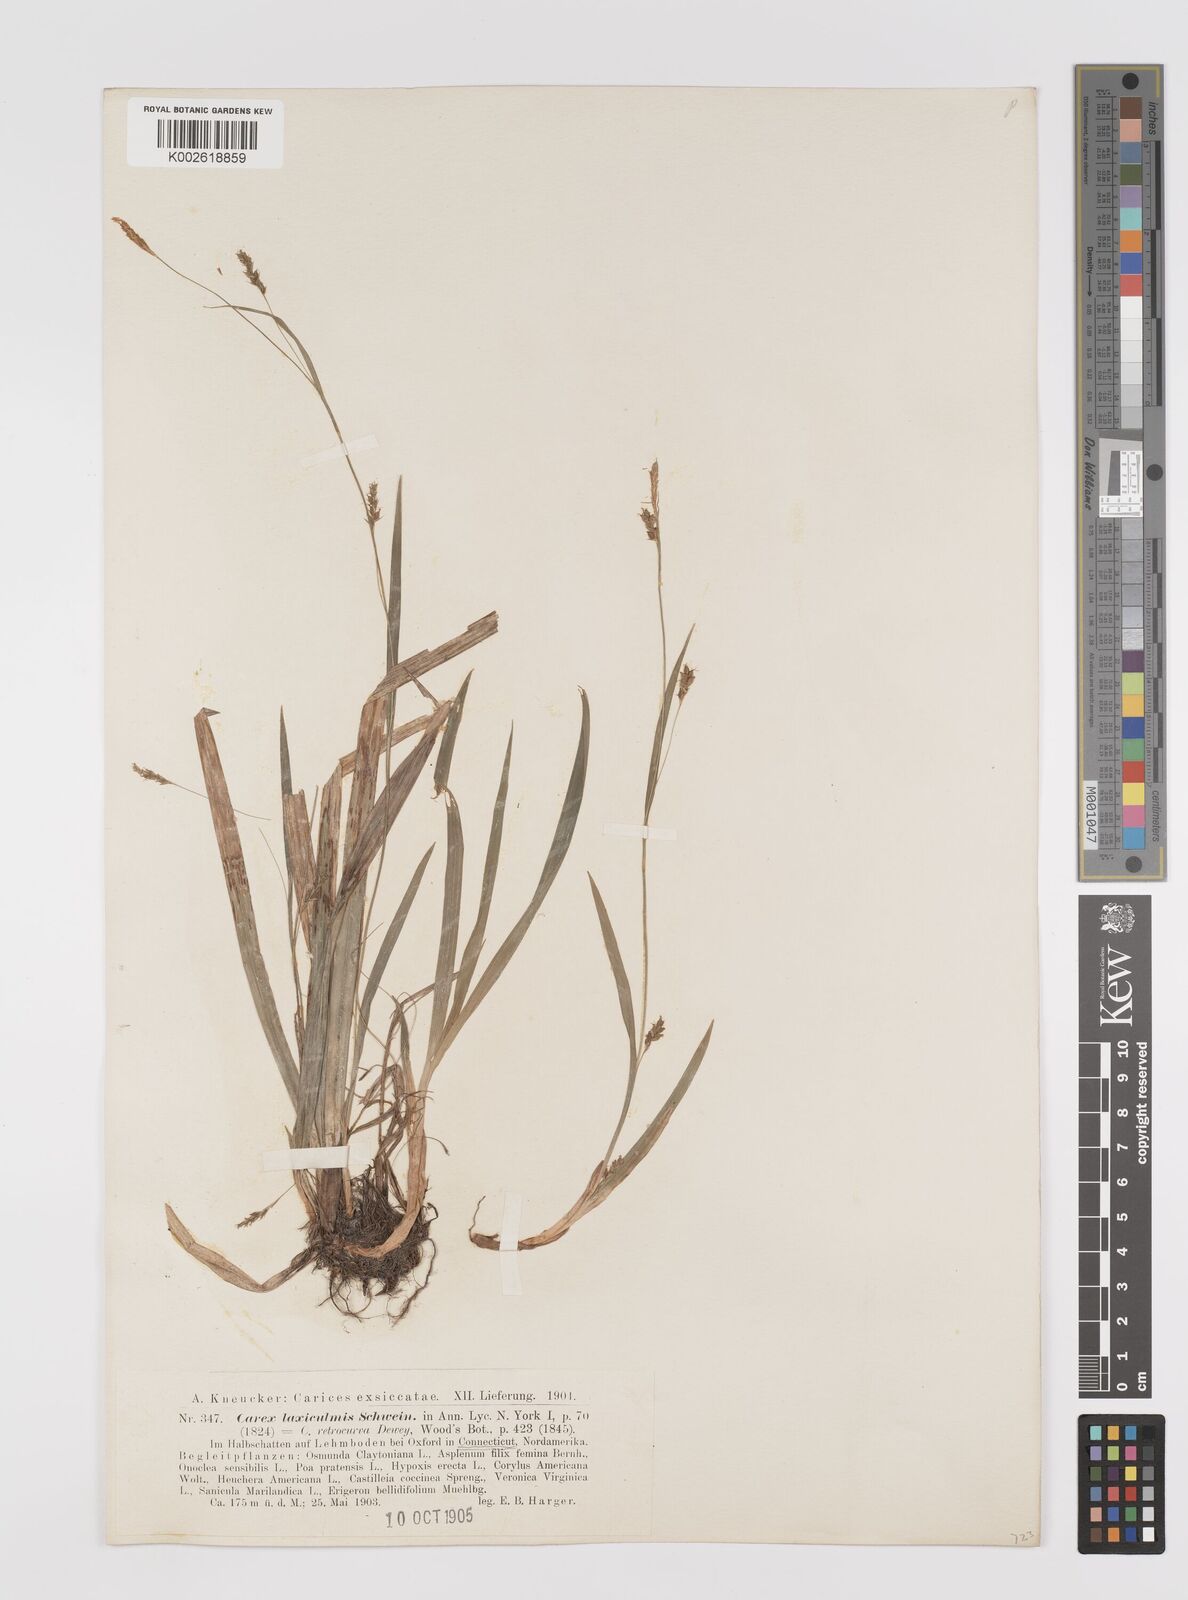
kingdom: Plantae
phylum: Tracheophyta
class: Liliopsida
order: Poales
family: Cyperaceae
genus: Carex
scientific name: Carex laxiculmis
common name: Spreading sedge
